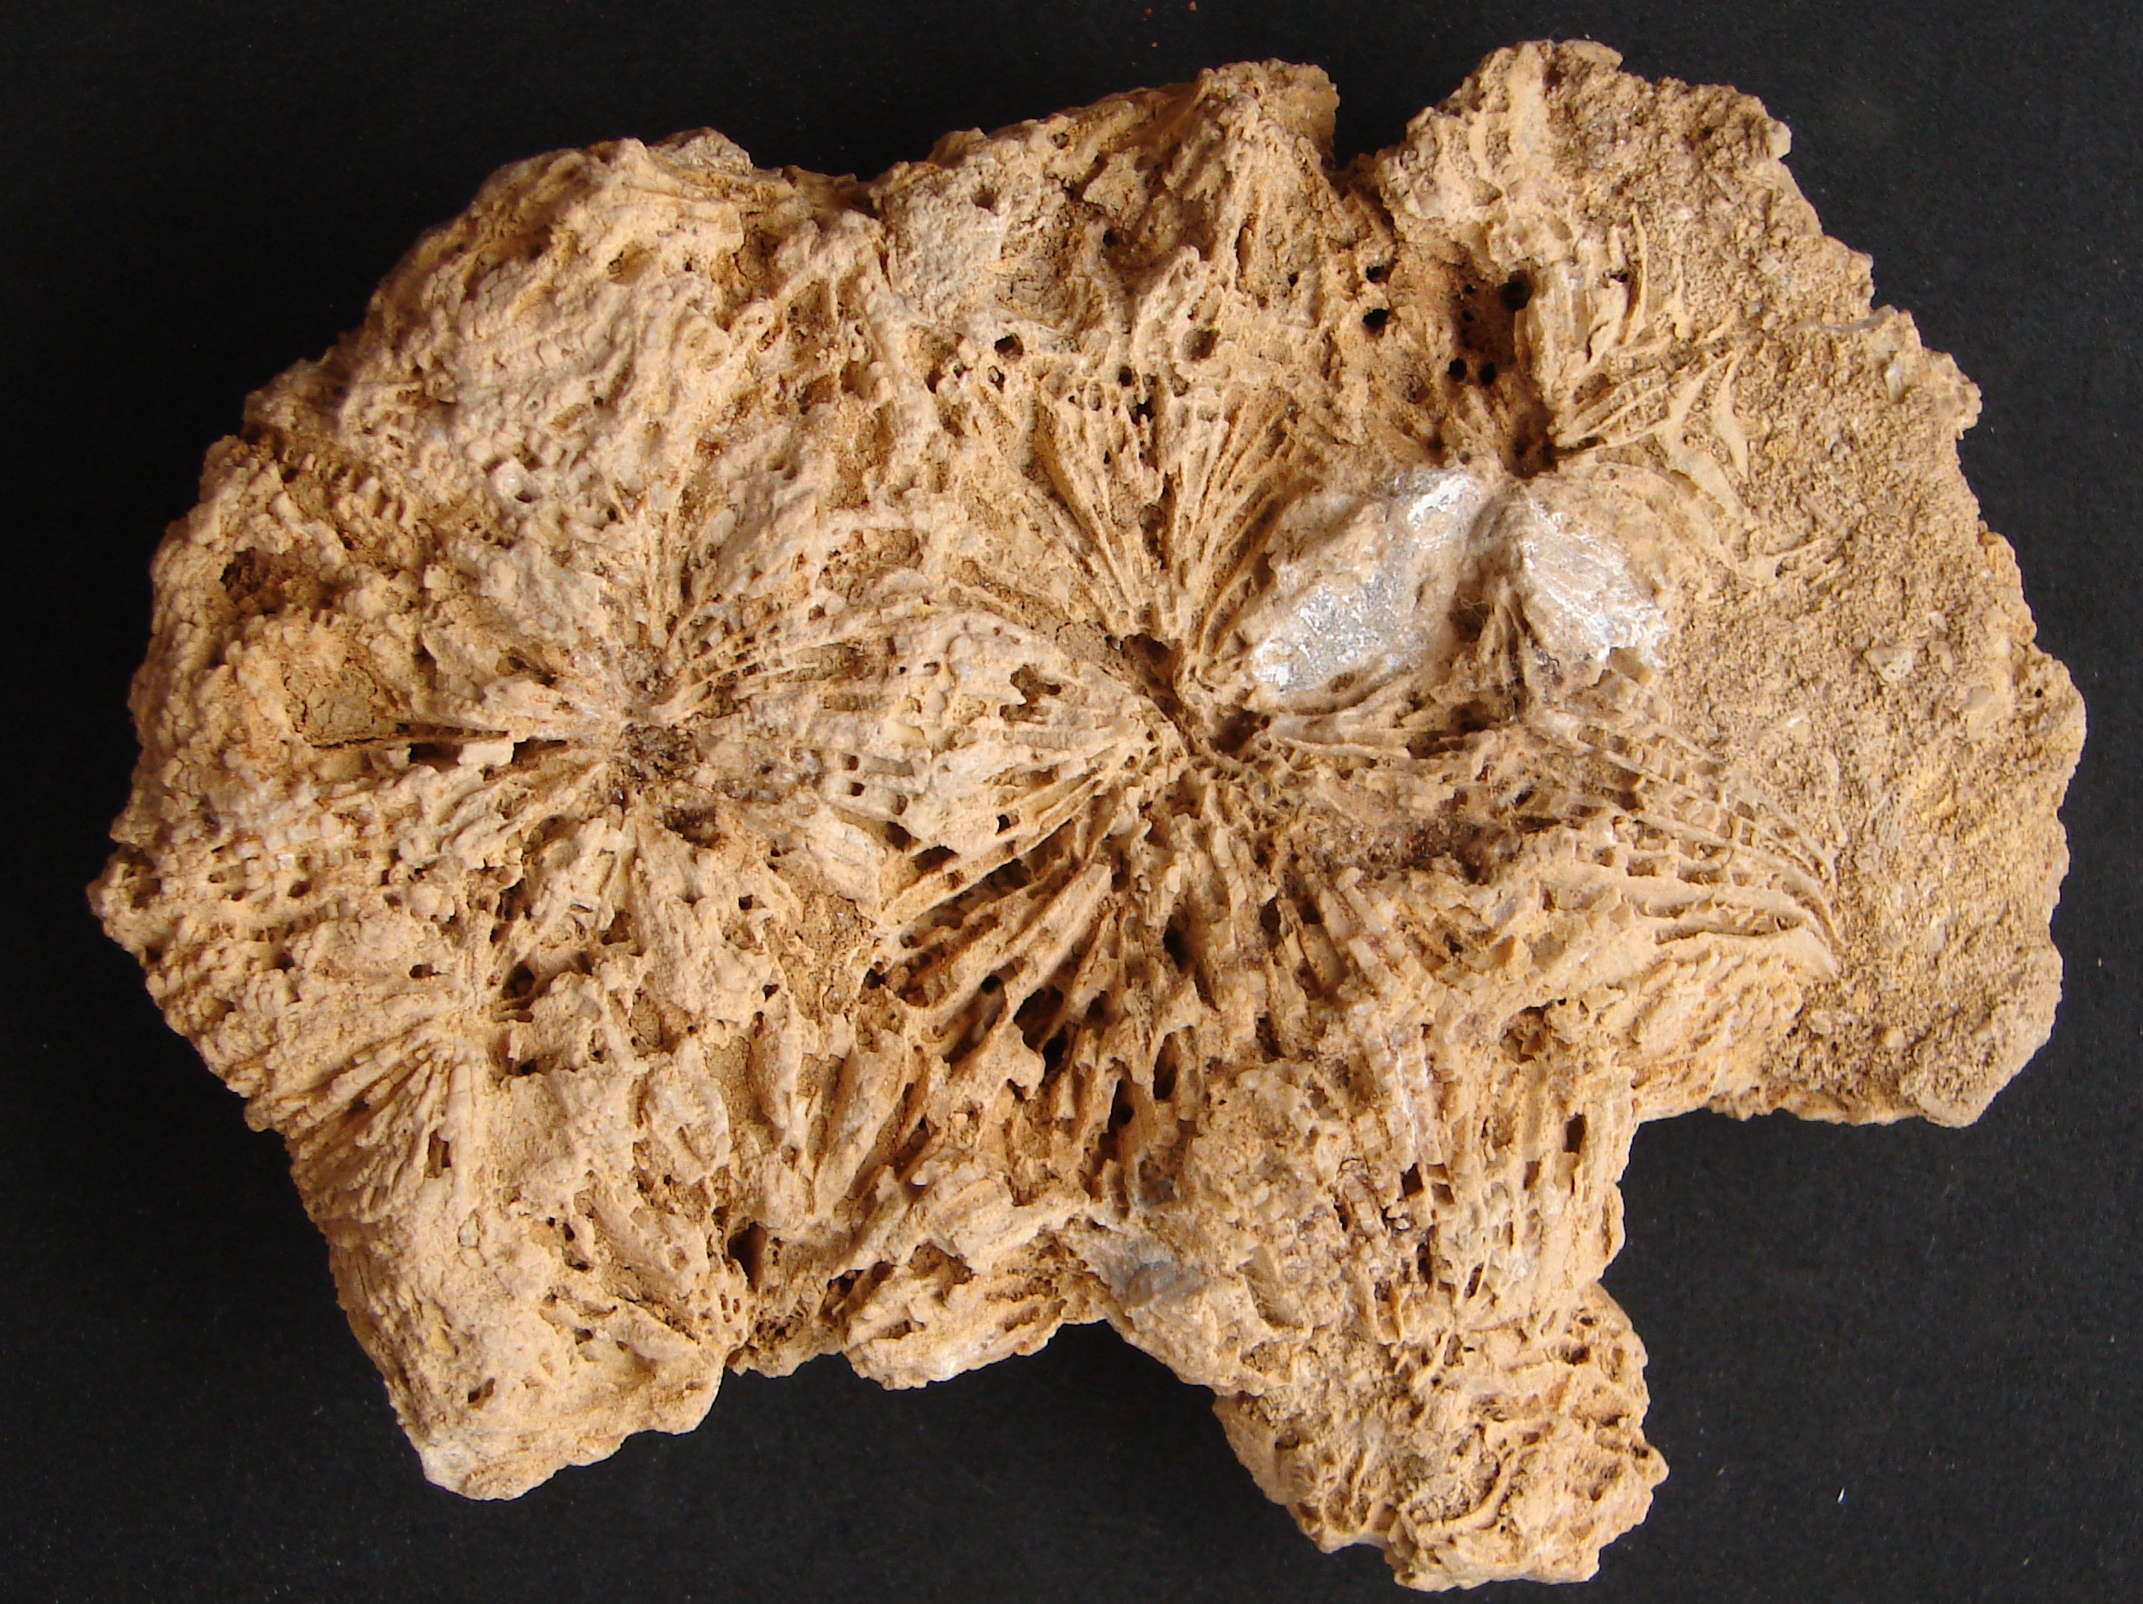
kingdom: Animalia
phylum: Cnidaria
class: Anthozoa
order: Scleractinia
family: Thecosmiliidae
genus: Complexastrea
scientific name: Complexastrea
